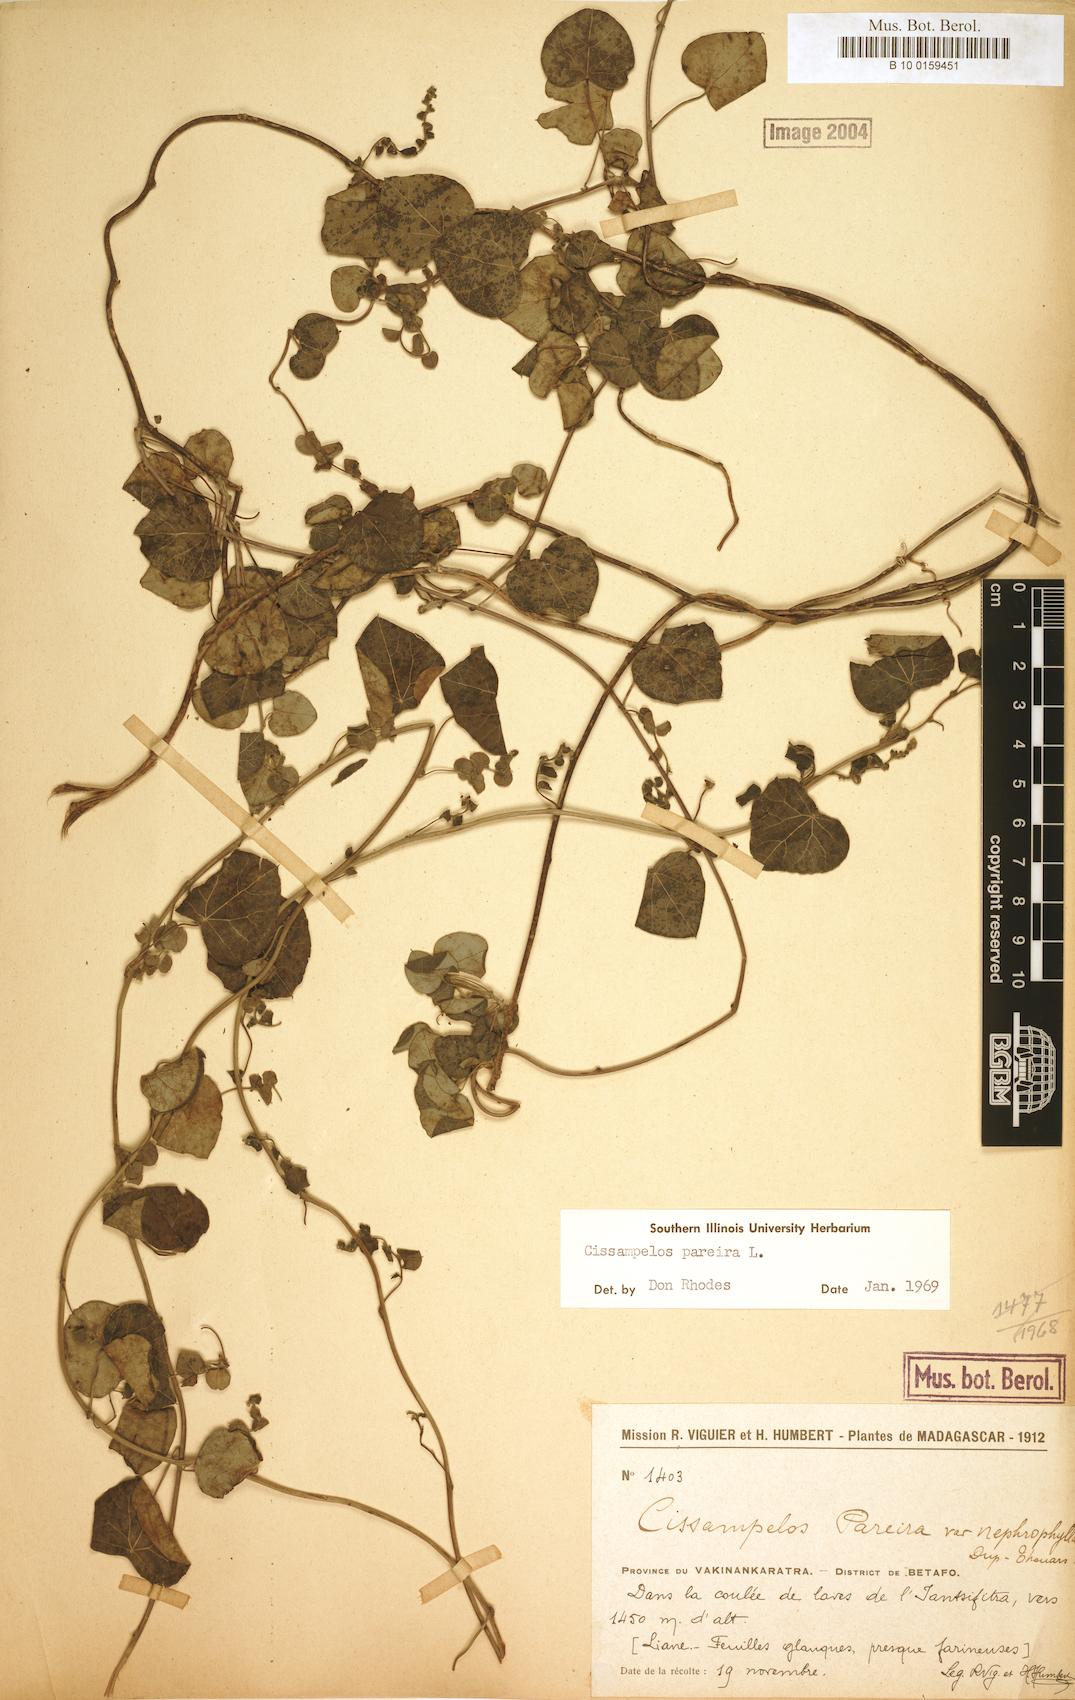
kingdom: Plantae
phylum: Tracheophyta
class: Magnoliopsida
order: Ranunculales
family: Menispermaceae
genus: Cissampelos
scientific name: Cissampelos pareira
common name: Velvetleaf
